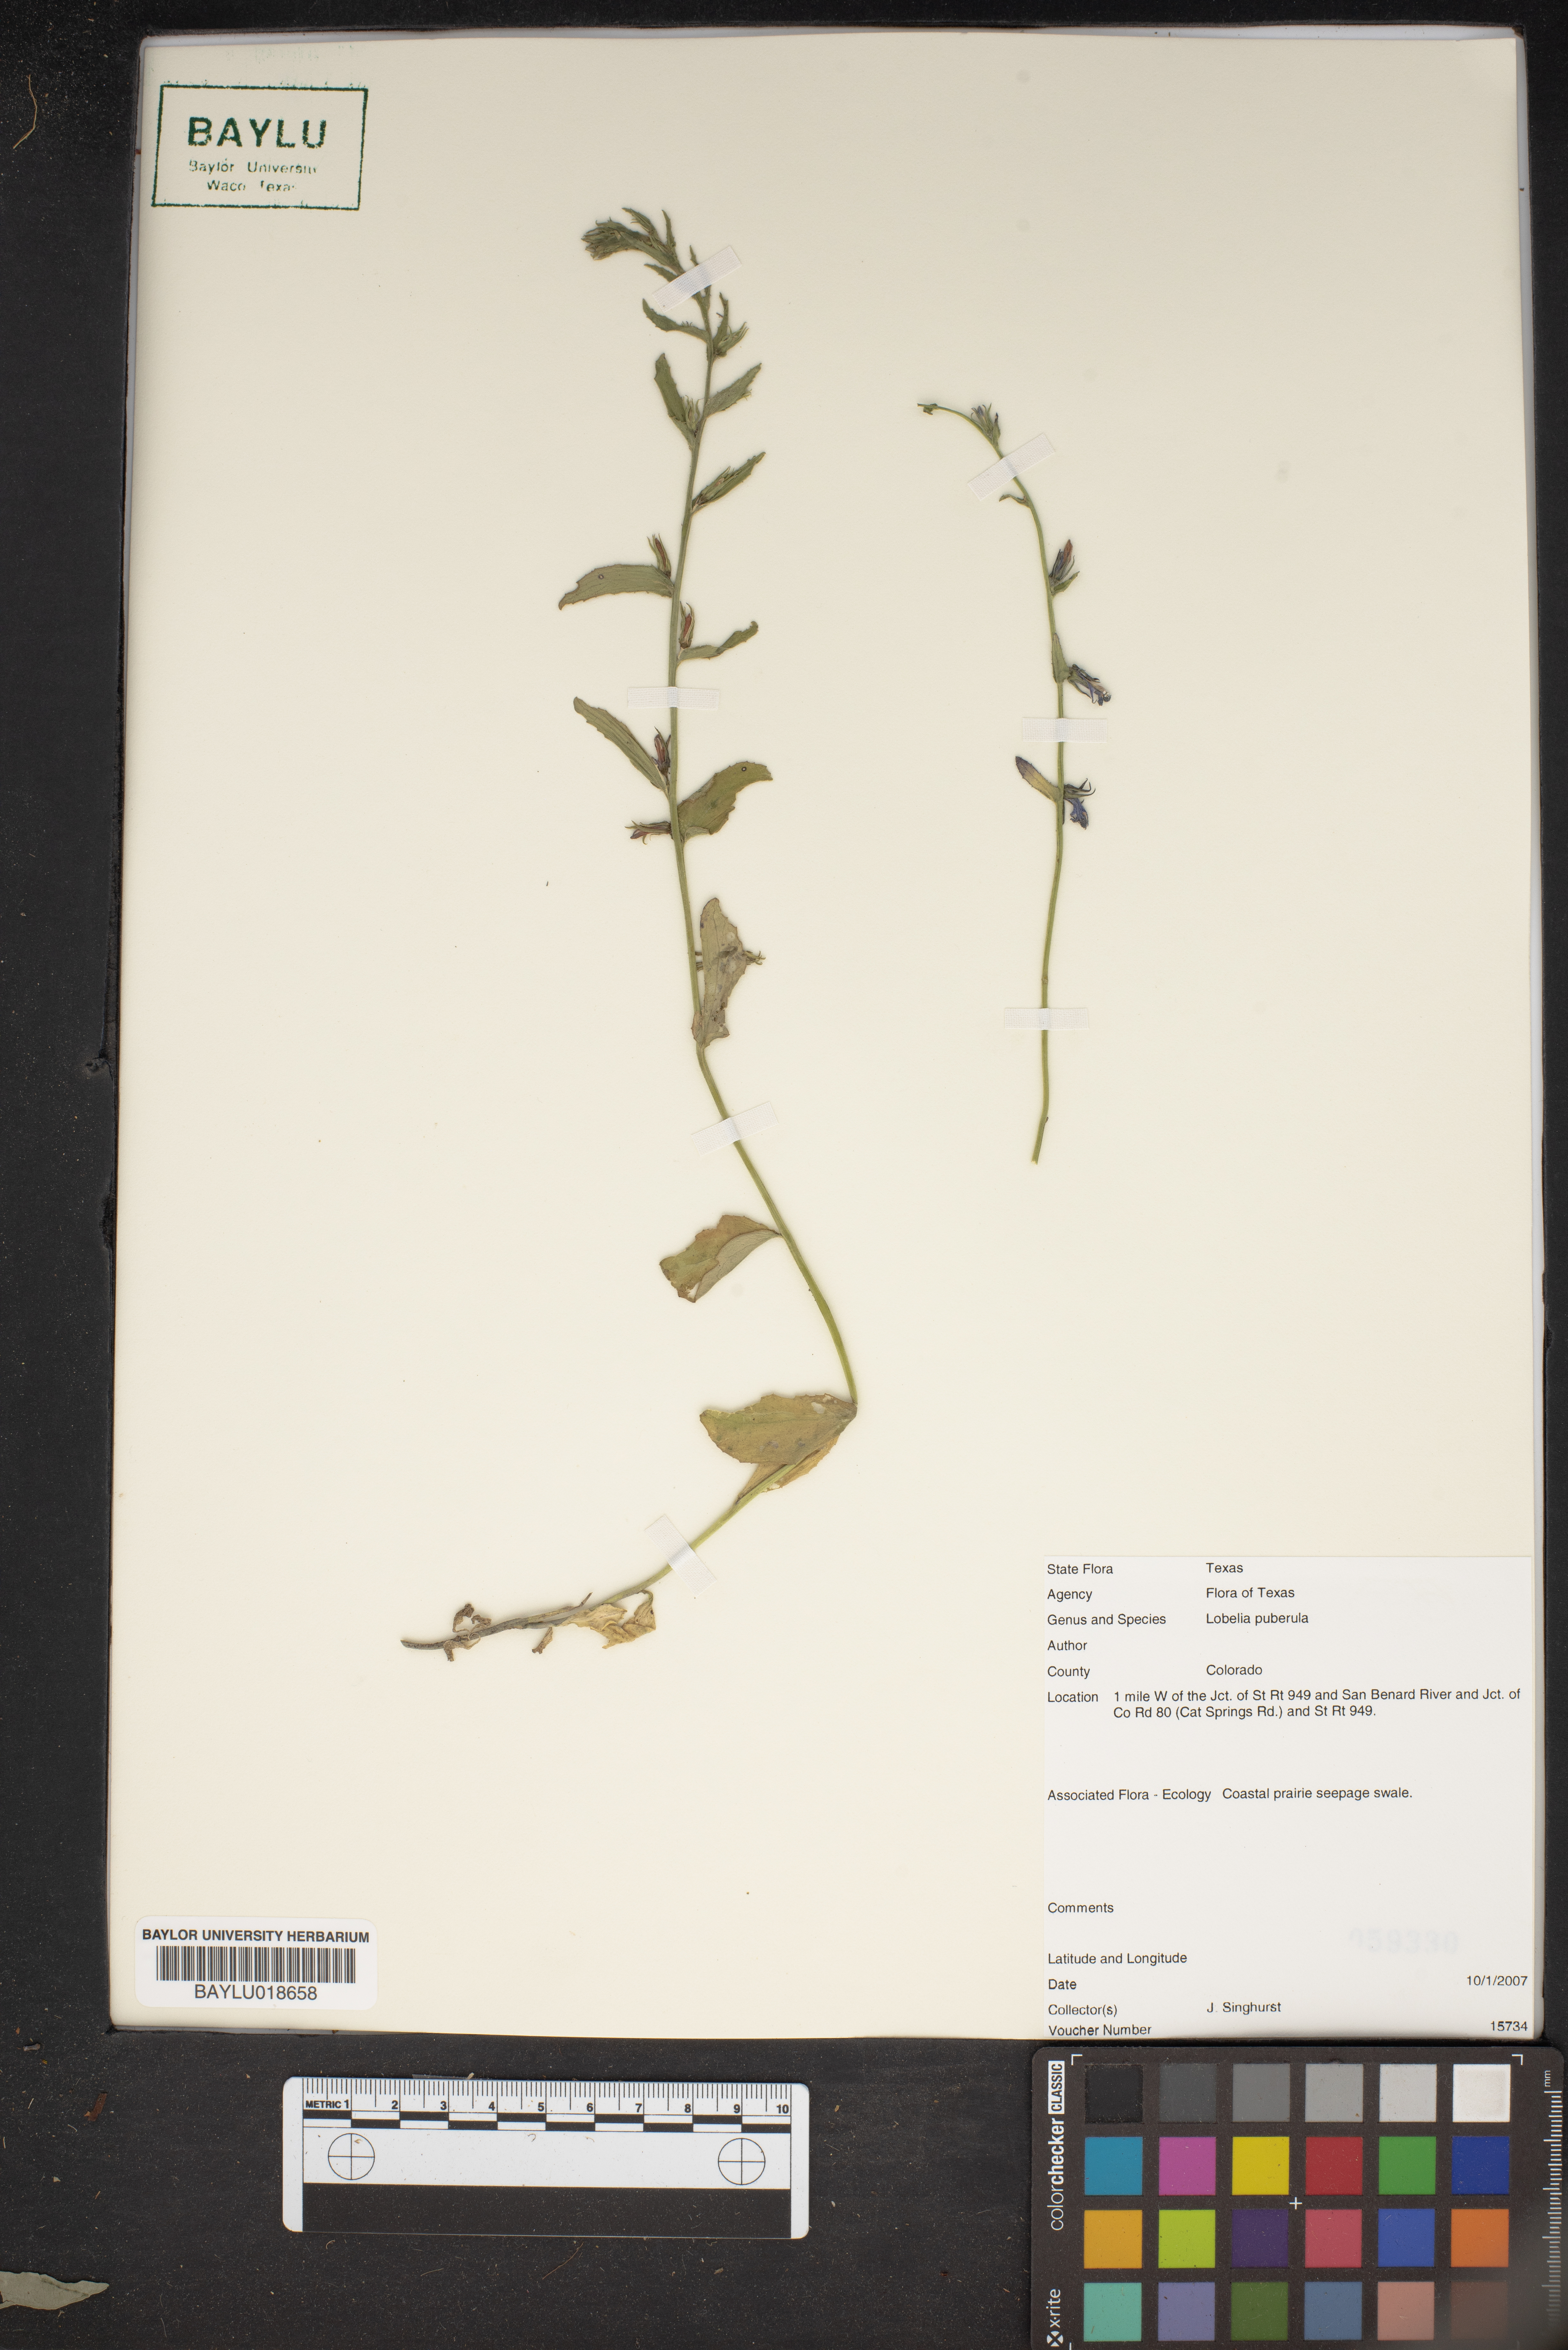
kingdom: Plantae
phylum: Tracheophyta
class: Magnoliopsida
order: Asterales
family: Campanulaceae
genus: Lobelia
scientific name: Lobelia puberula
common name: Purple dewdrop
